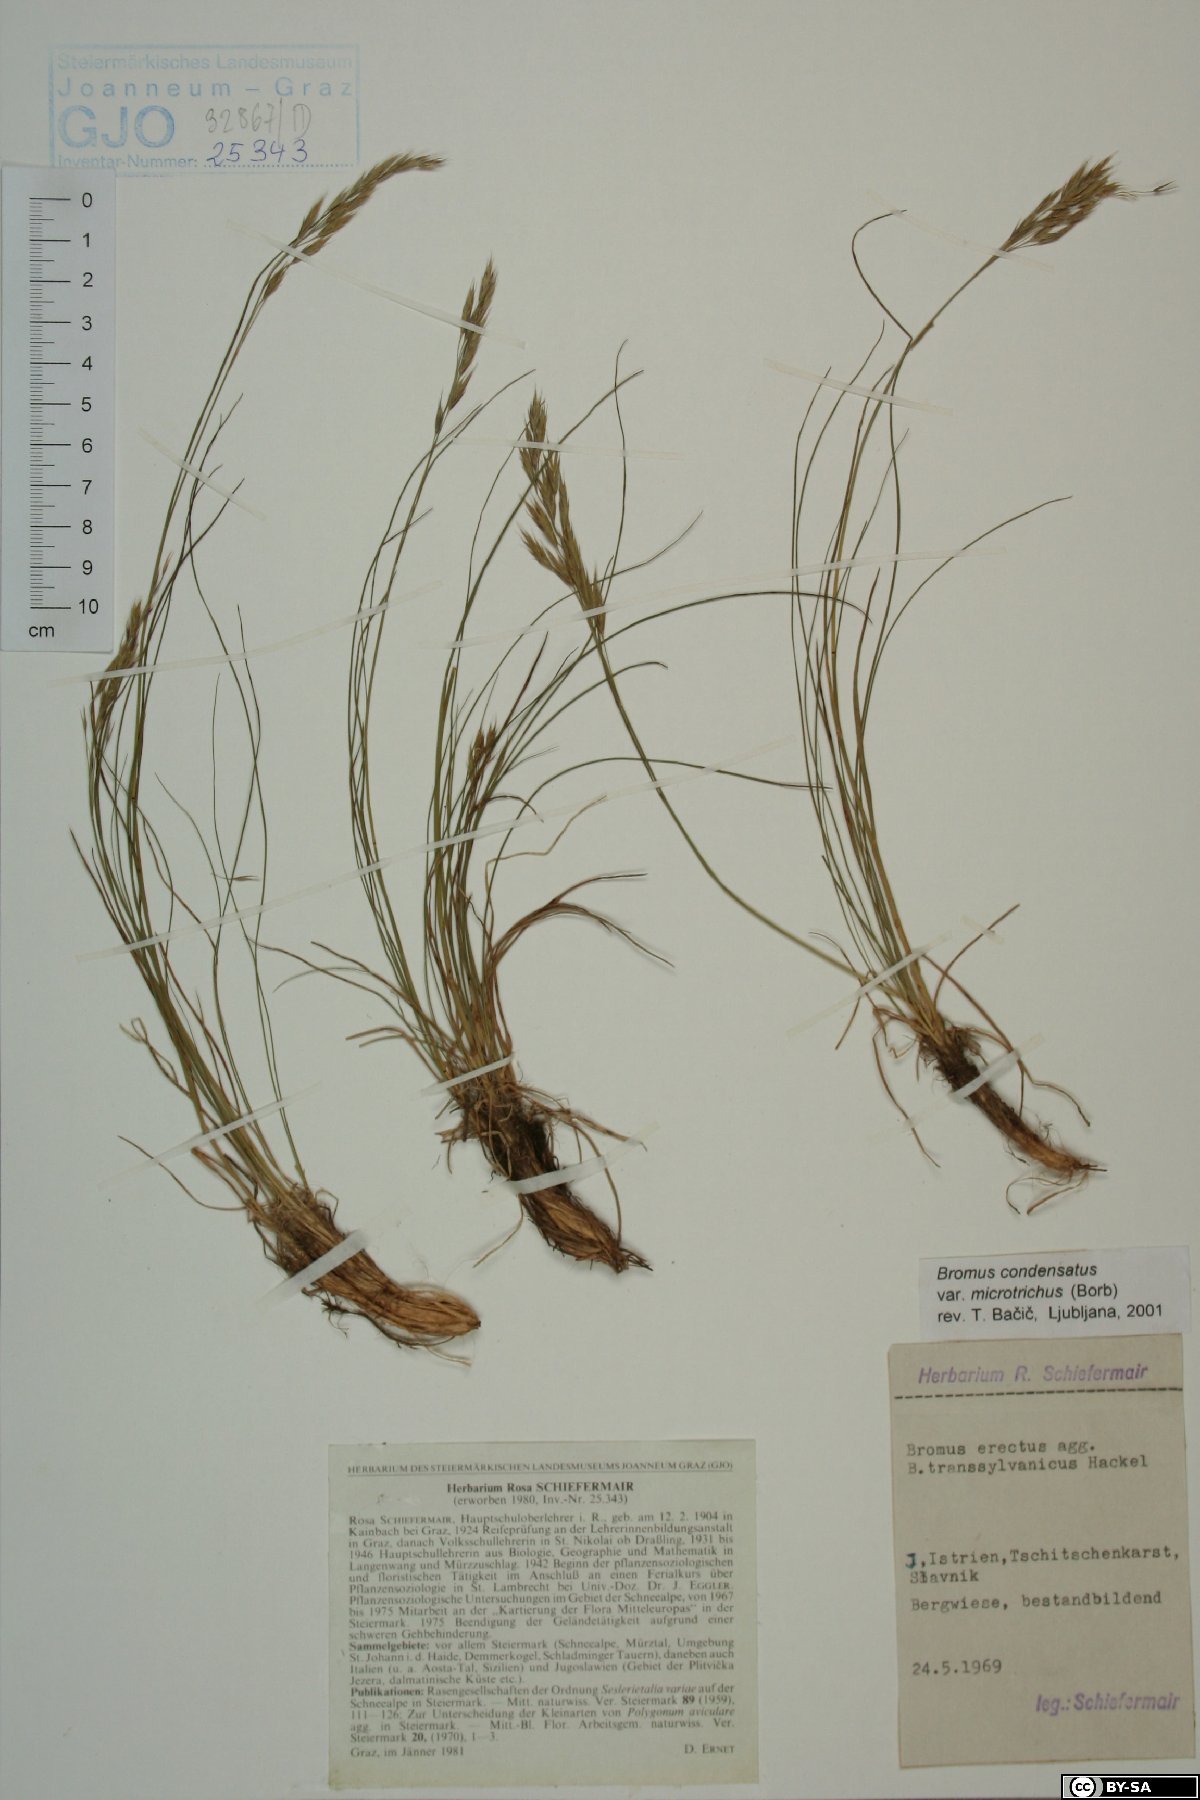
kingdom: Plantae
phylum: Tracheophyta
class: Liliopsida
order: Poales
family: Poaceae
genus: Bromus
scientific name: Bromus condensatus
